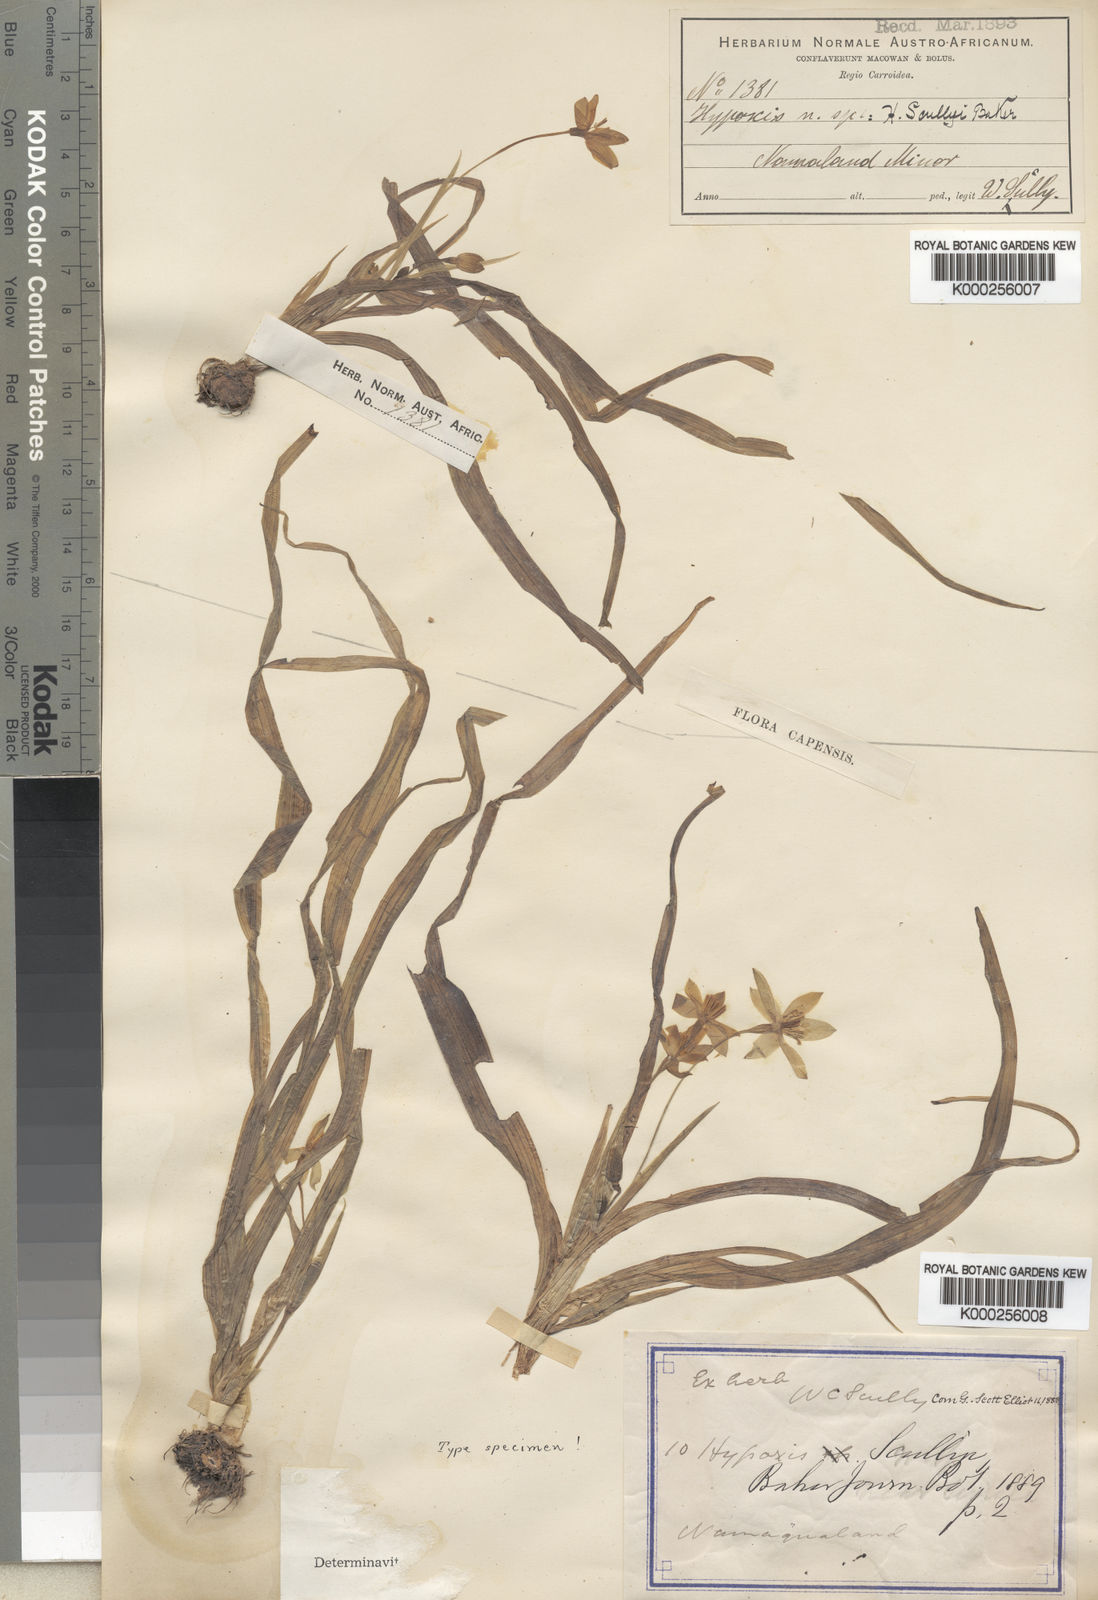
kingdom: Plantae
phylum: Tracheophyta
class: Liliopsida
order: Asparagales
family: Hypoxidaceae
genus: Pauridia
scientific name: Pauridia scullyi
